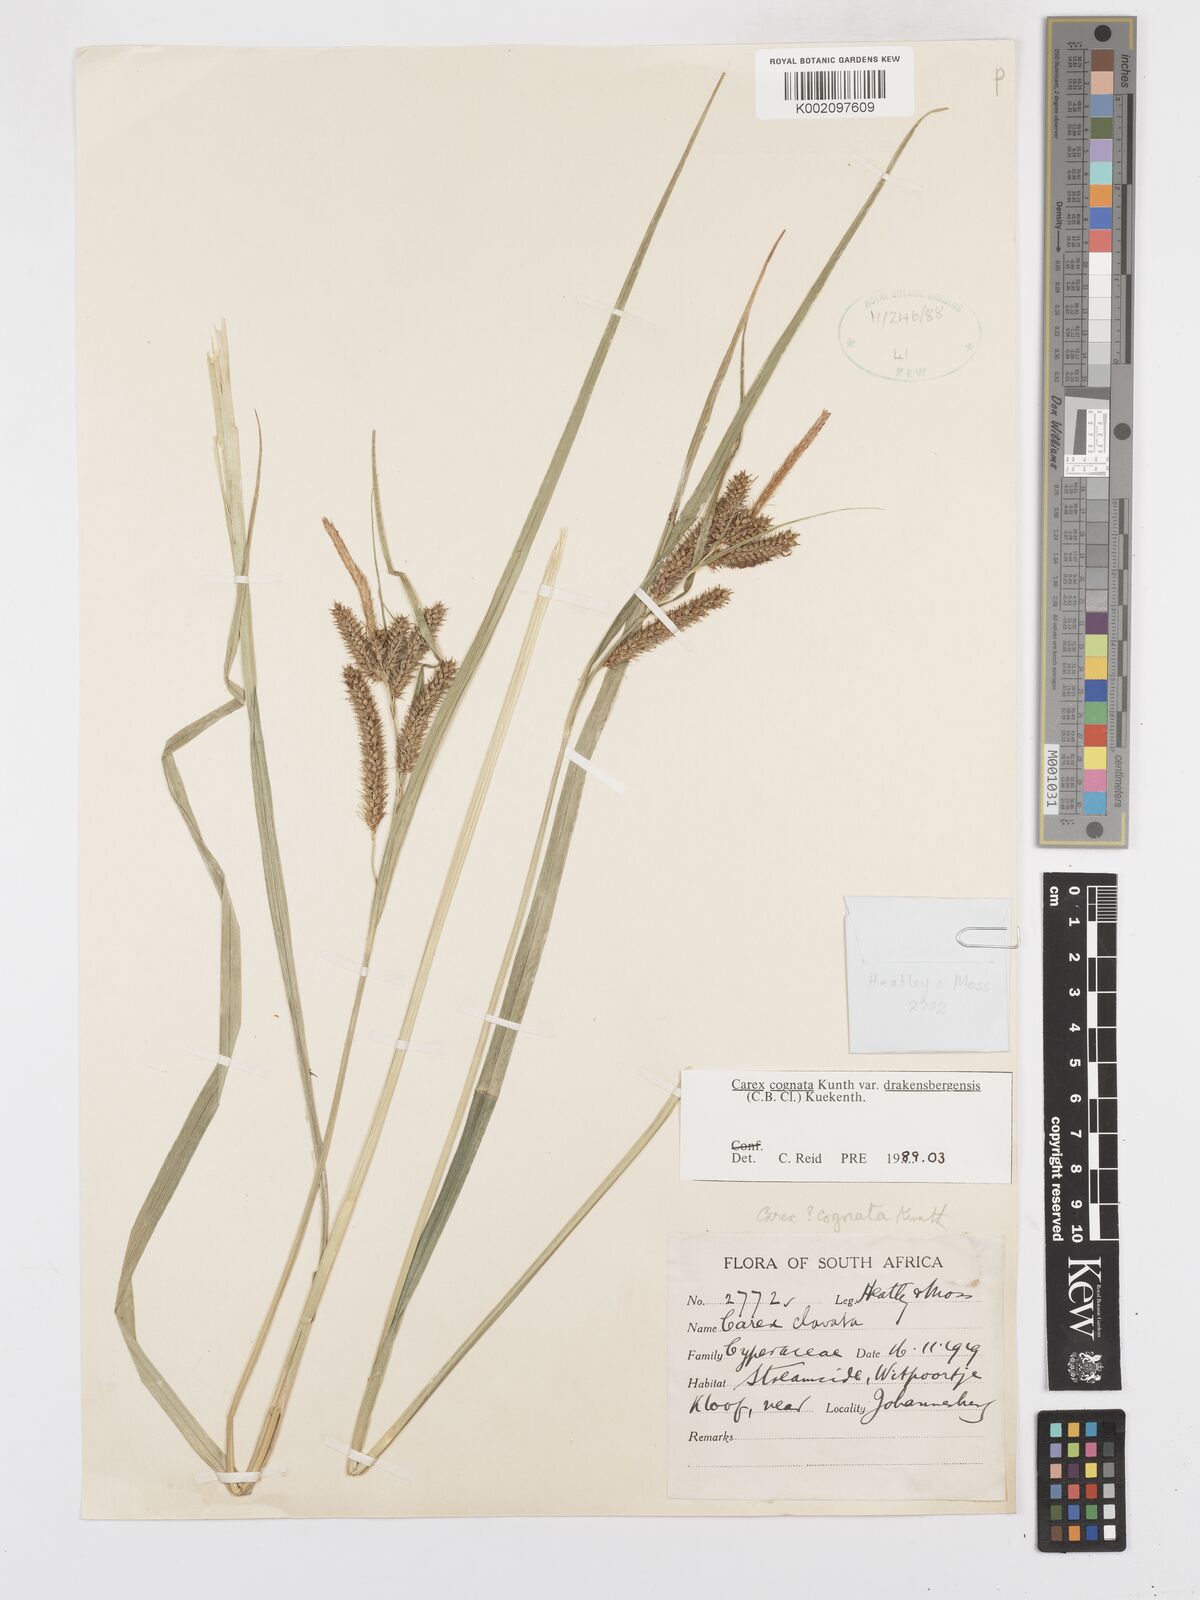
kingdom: Plantae
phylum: Tracheophyta
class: Liliopsida
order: Poales
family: Cyperaceae
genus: Carex
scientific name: Carex cognata
